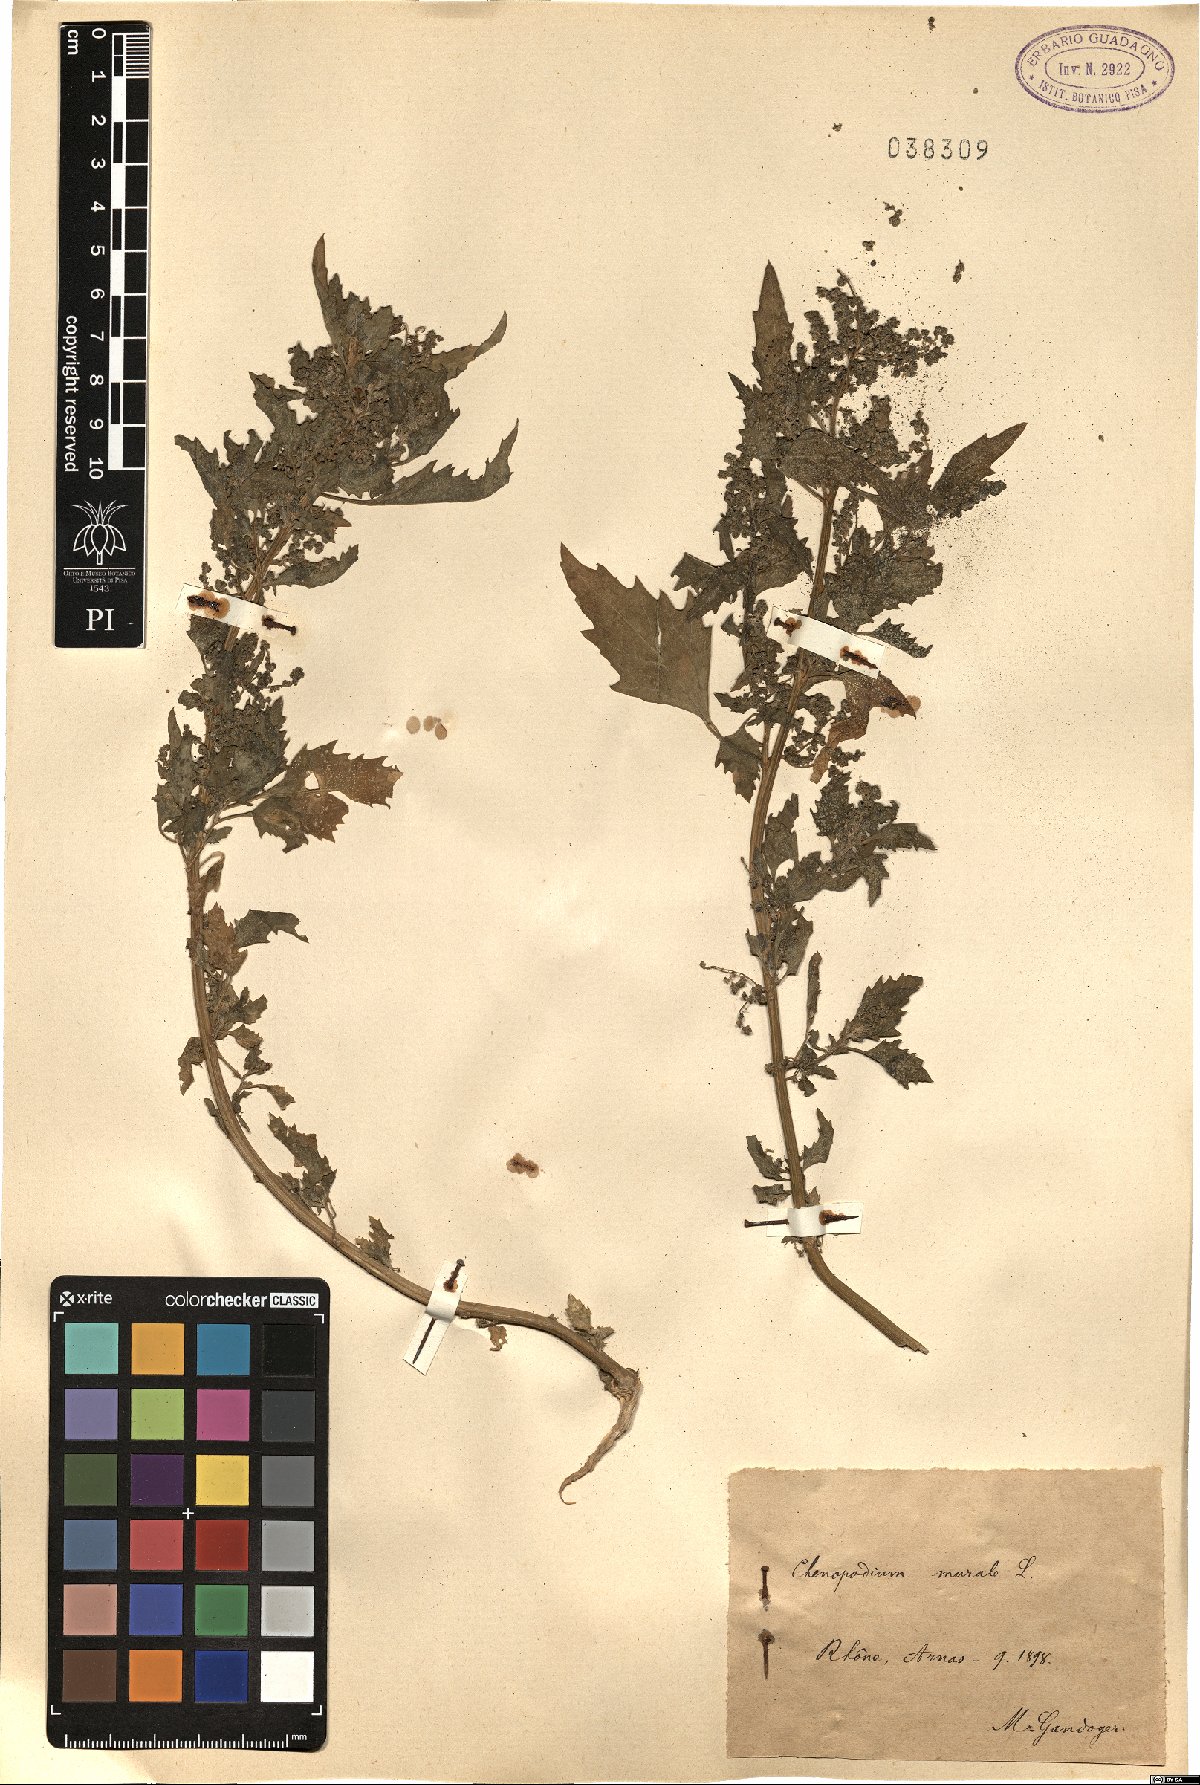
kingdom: Plantae
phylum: Tracheophyta
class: Magnoliopsida
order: Caryophyllales
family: Amaranthaceae
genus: Chenopodiastrum
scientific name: Chenopodiastrum murale
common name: Sowbane
